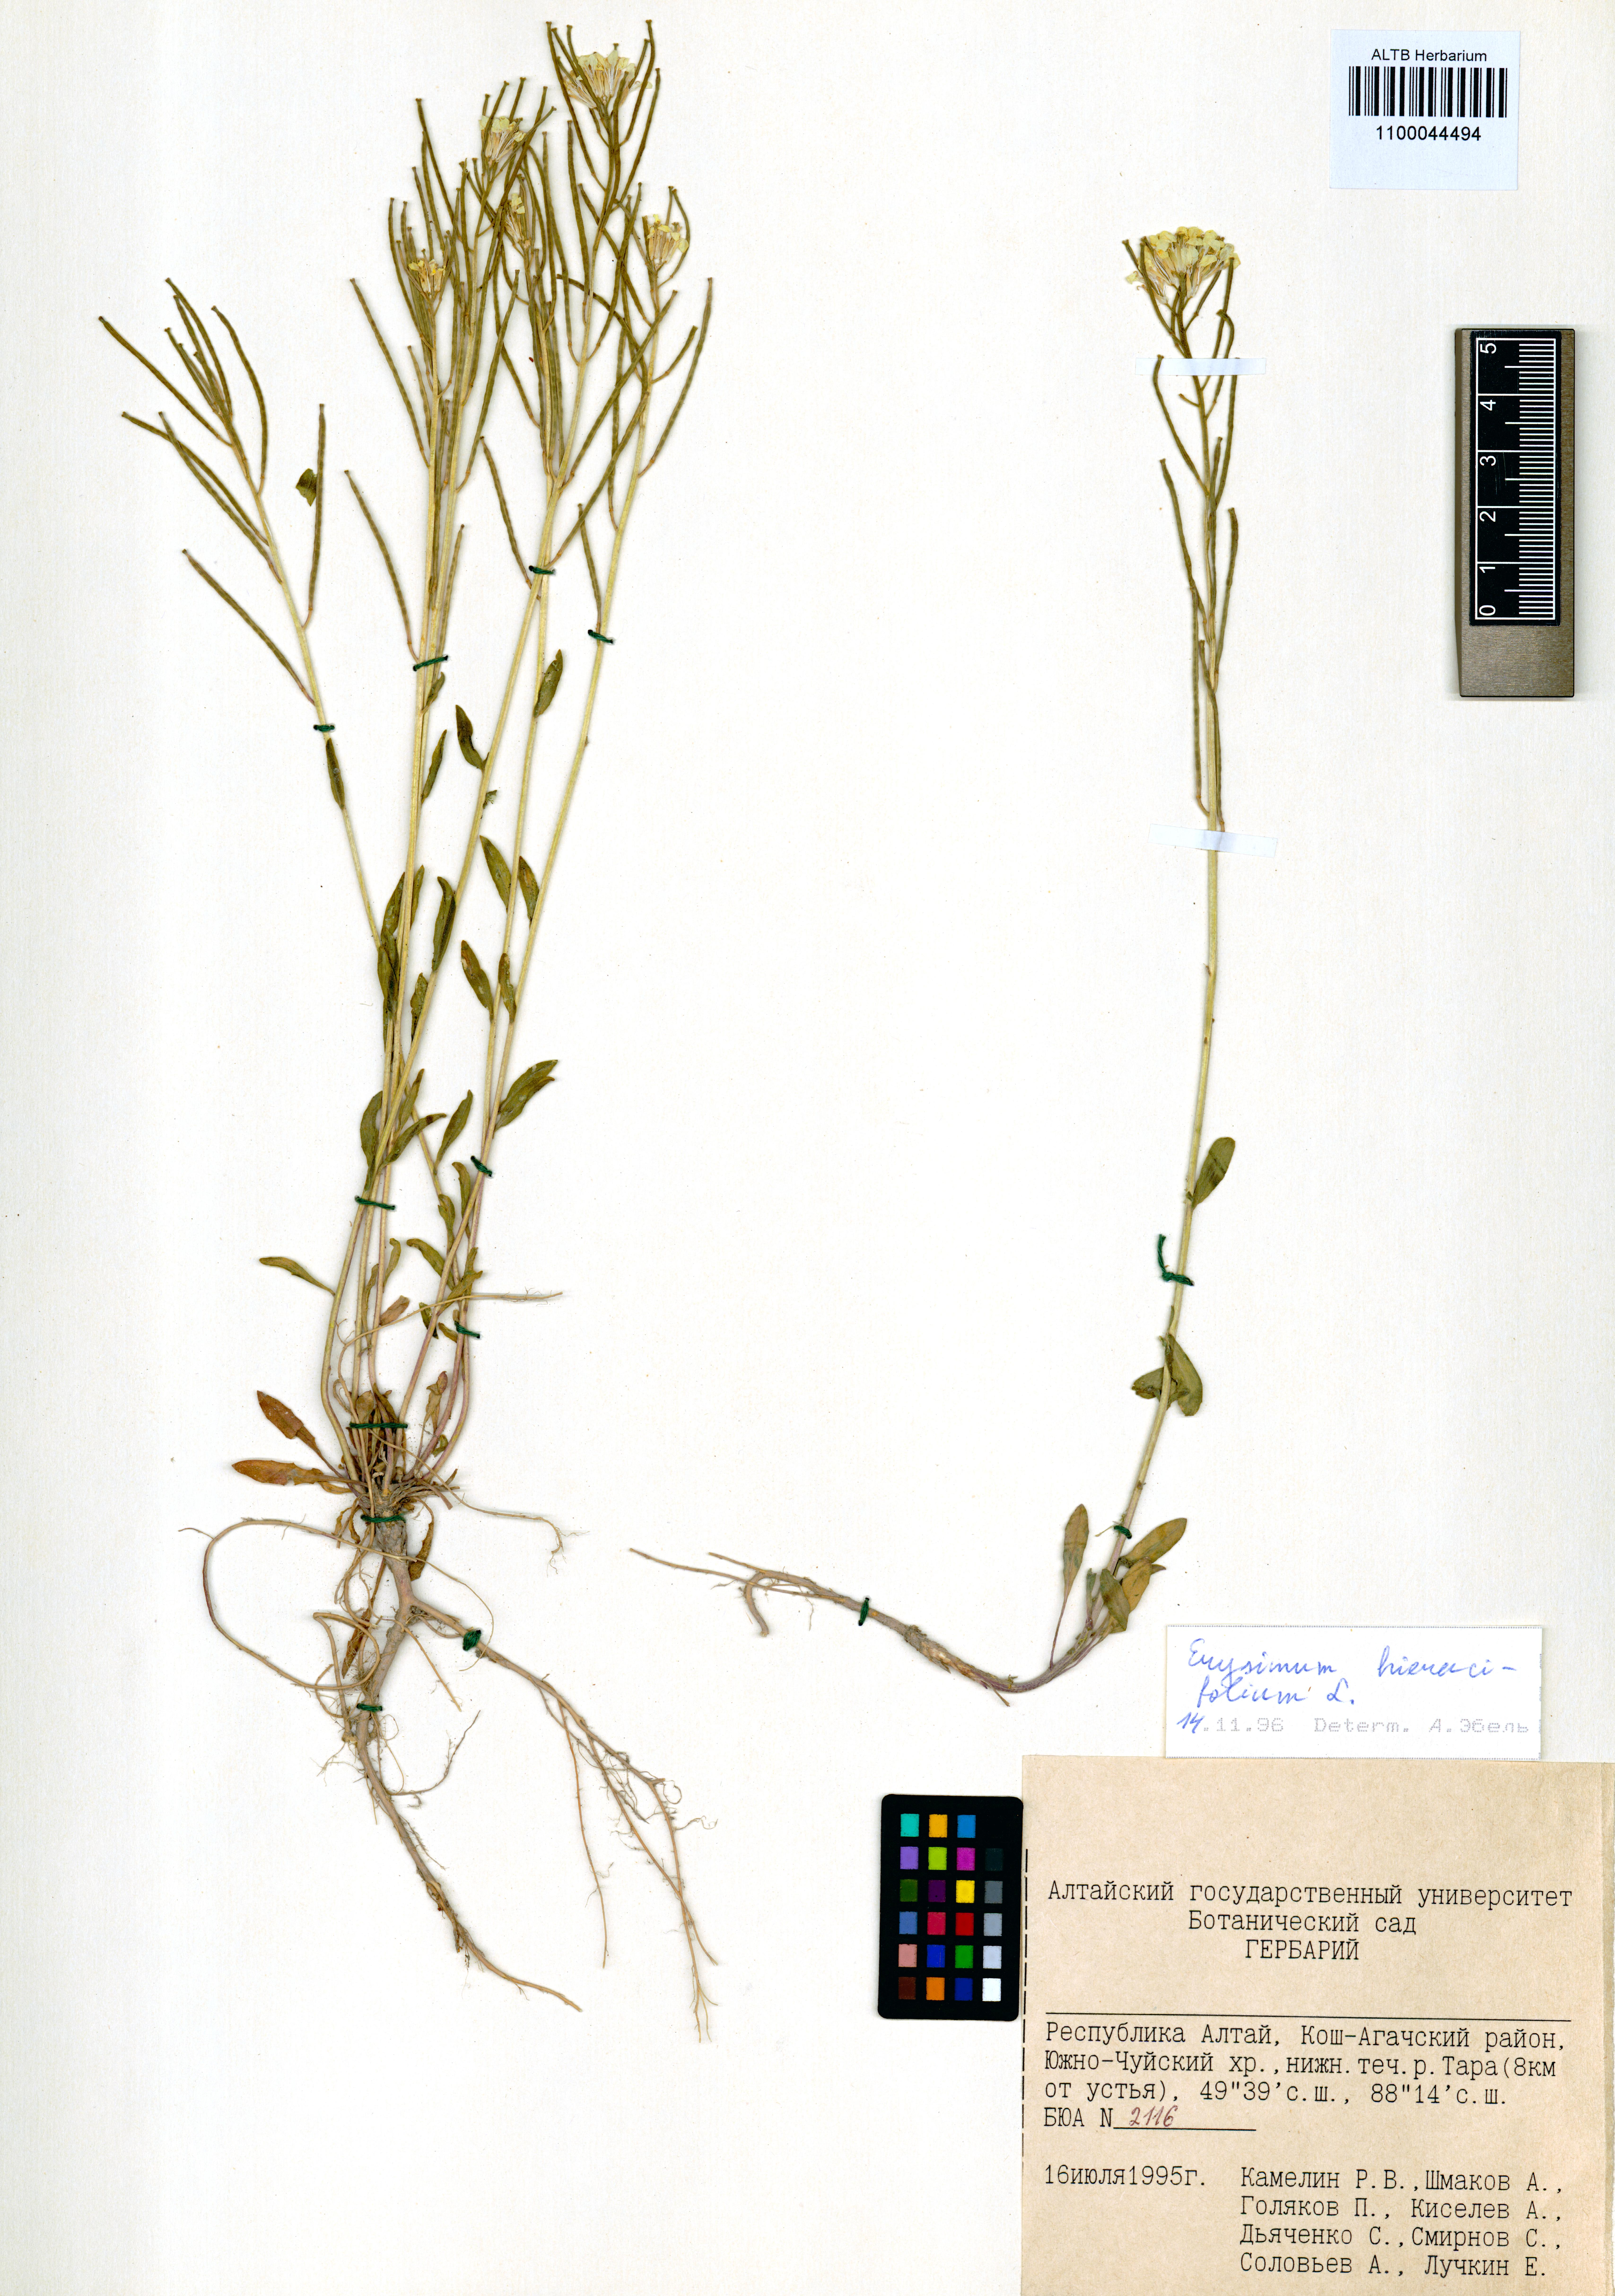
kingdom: Plantae
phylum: Tracheophyta
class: Magnoliopsida
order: Brassicales
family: Brassicaceae
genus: Erysimum
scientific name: Erysimum hieraciifolium
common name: European wallflower
